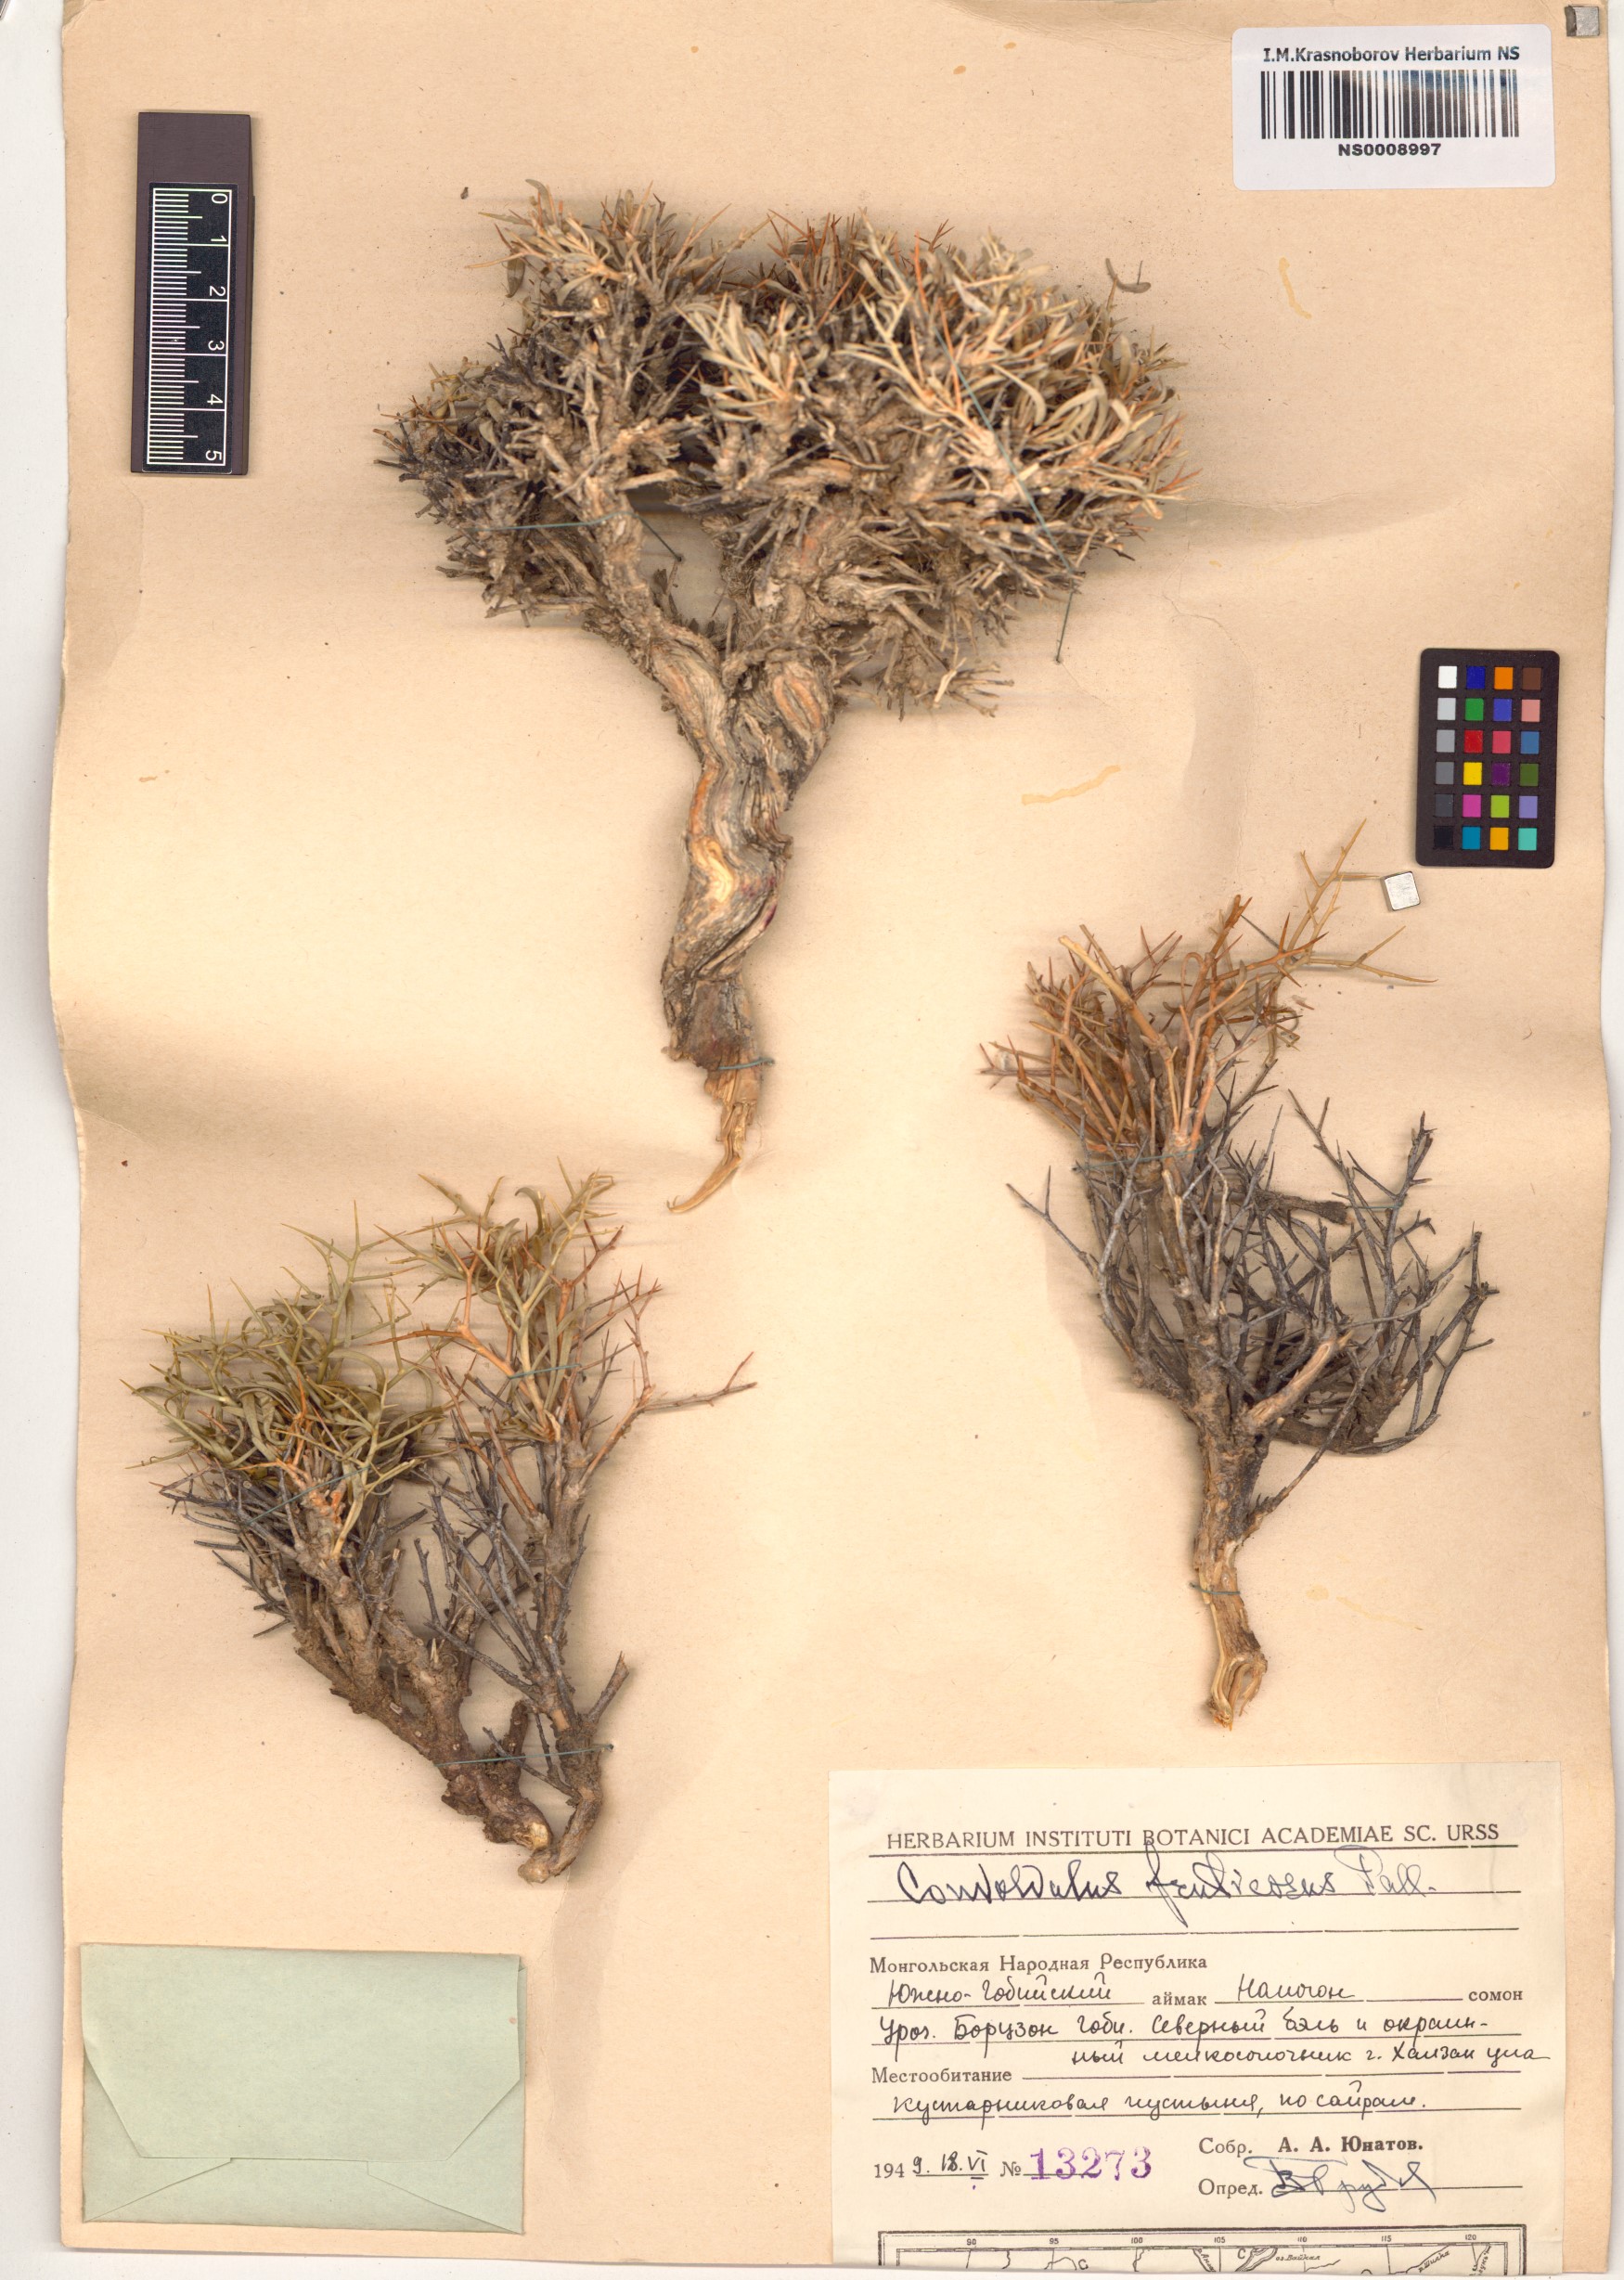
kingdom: Plantae
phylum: Tracheophyta
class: Magnoliopsida
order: Solanales
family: Convolvulaceae
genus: Convolvulus
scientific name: Convolvulus fruticosus
